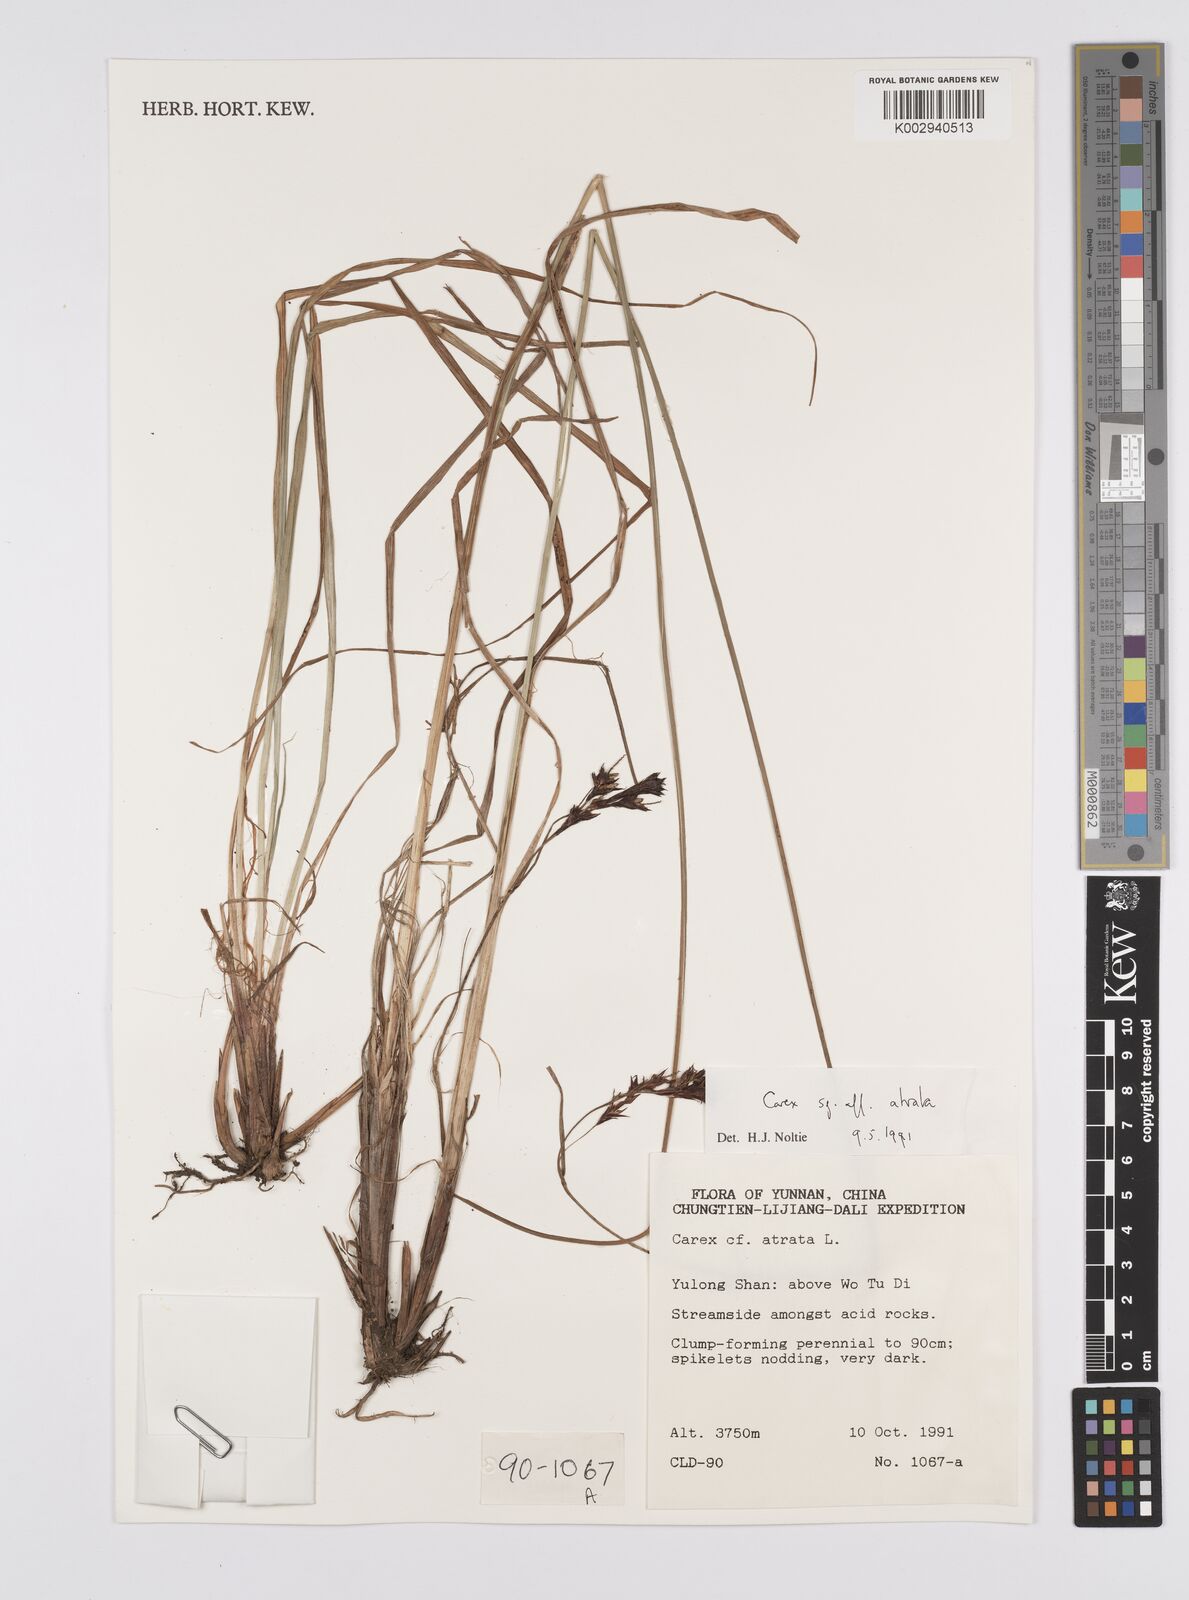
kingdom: Plantae
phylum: Tracheophyta
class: Liliopsida
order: Poales
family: Cyperaceae
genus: Carex
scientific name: Carex atrata
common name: Black alpine sedge
